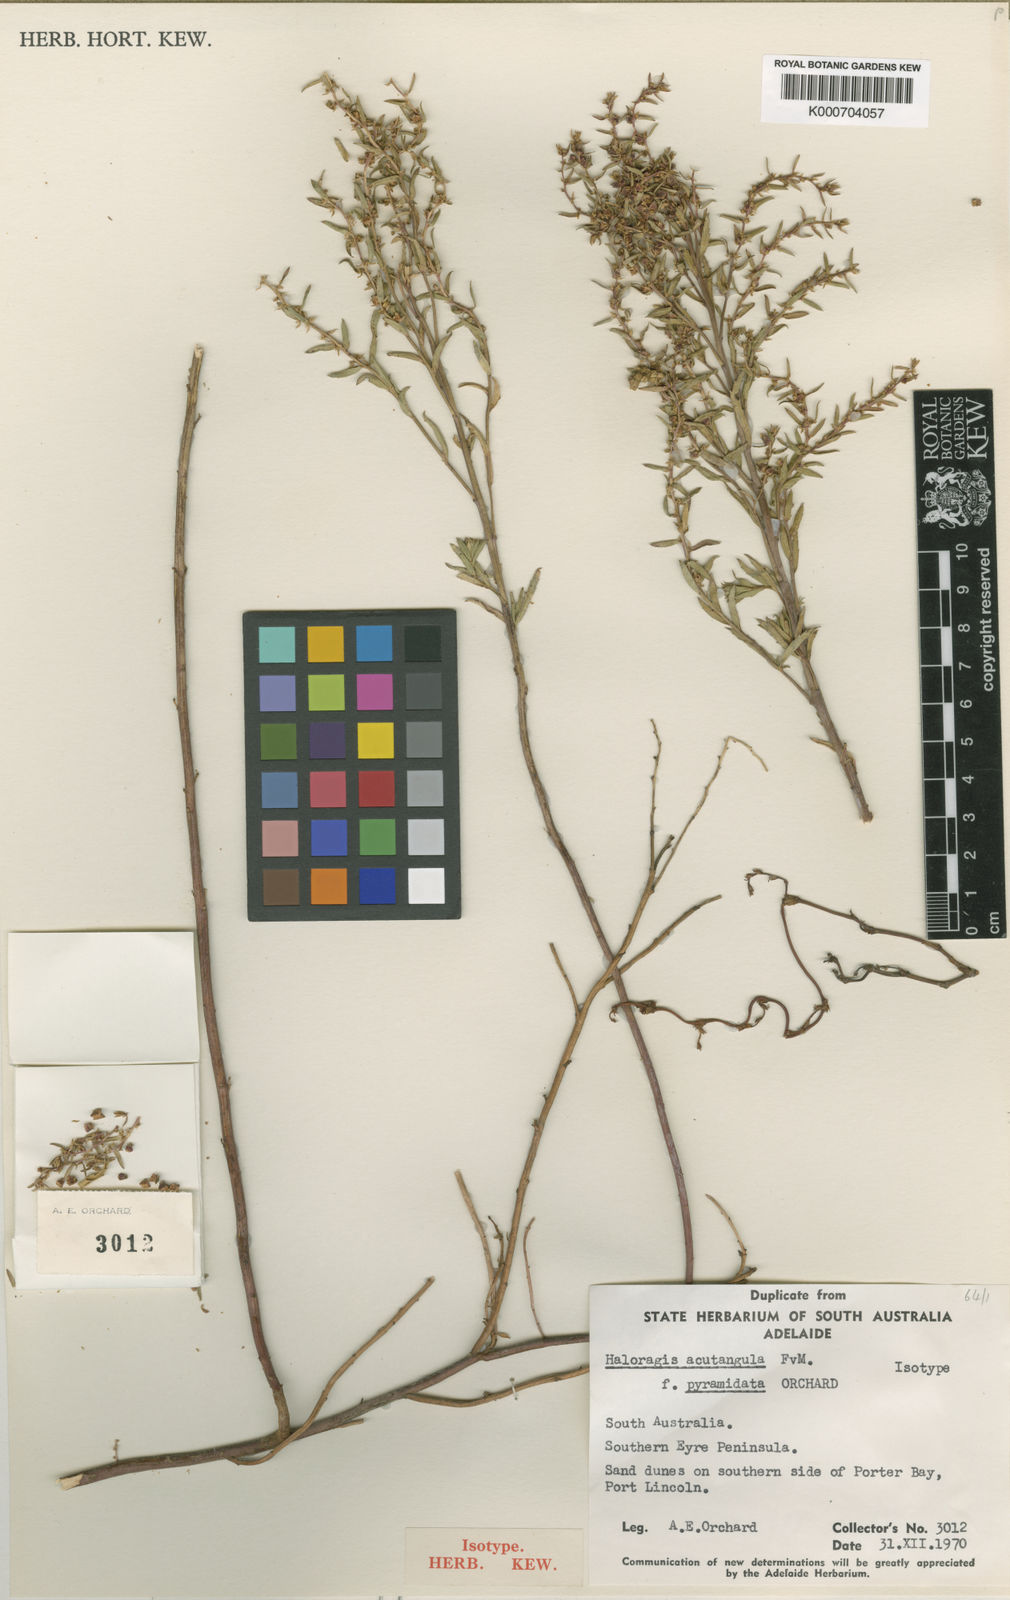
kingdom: Plantae
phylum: Tracheophyta
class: Magnoliopsida
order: Saxifragales
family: Haloragaceae
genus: Haloragis
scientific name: Haloragis
